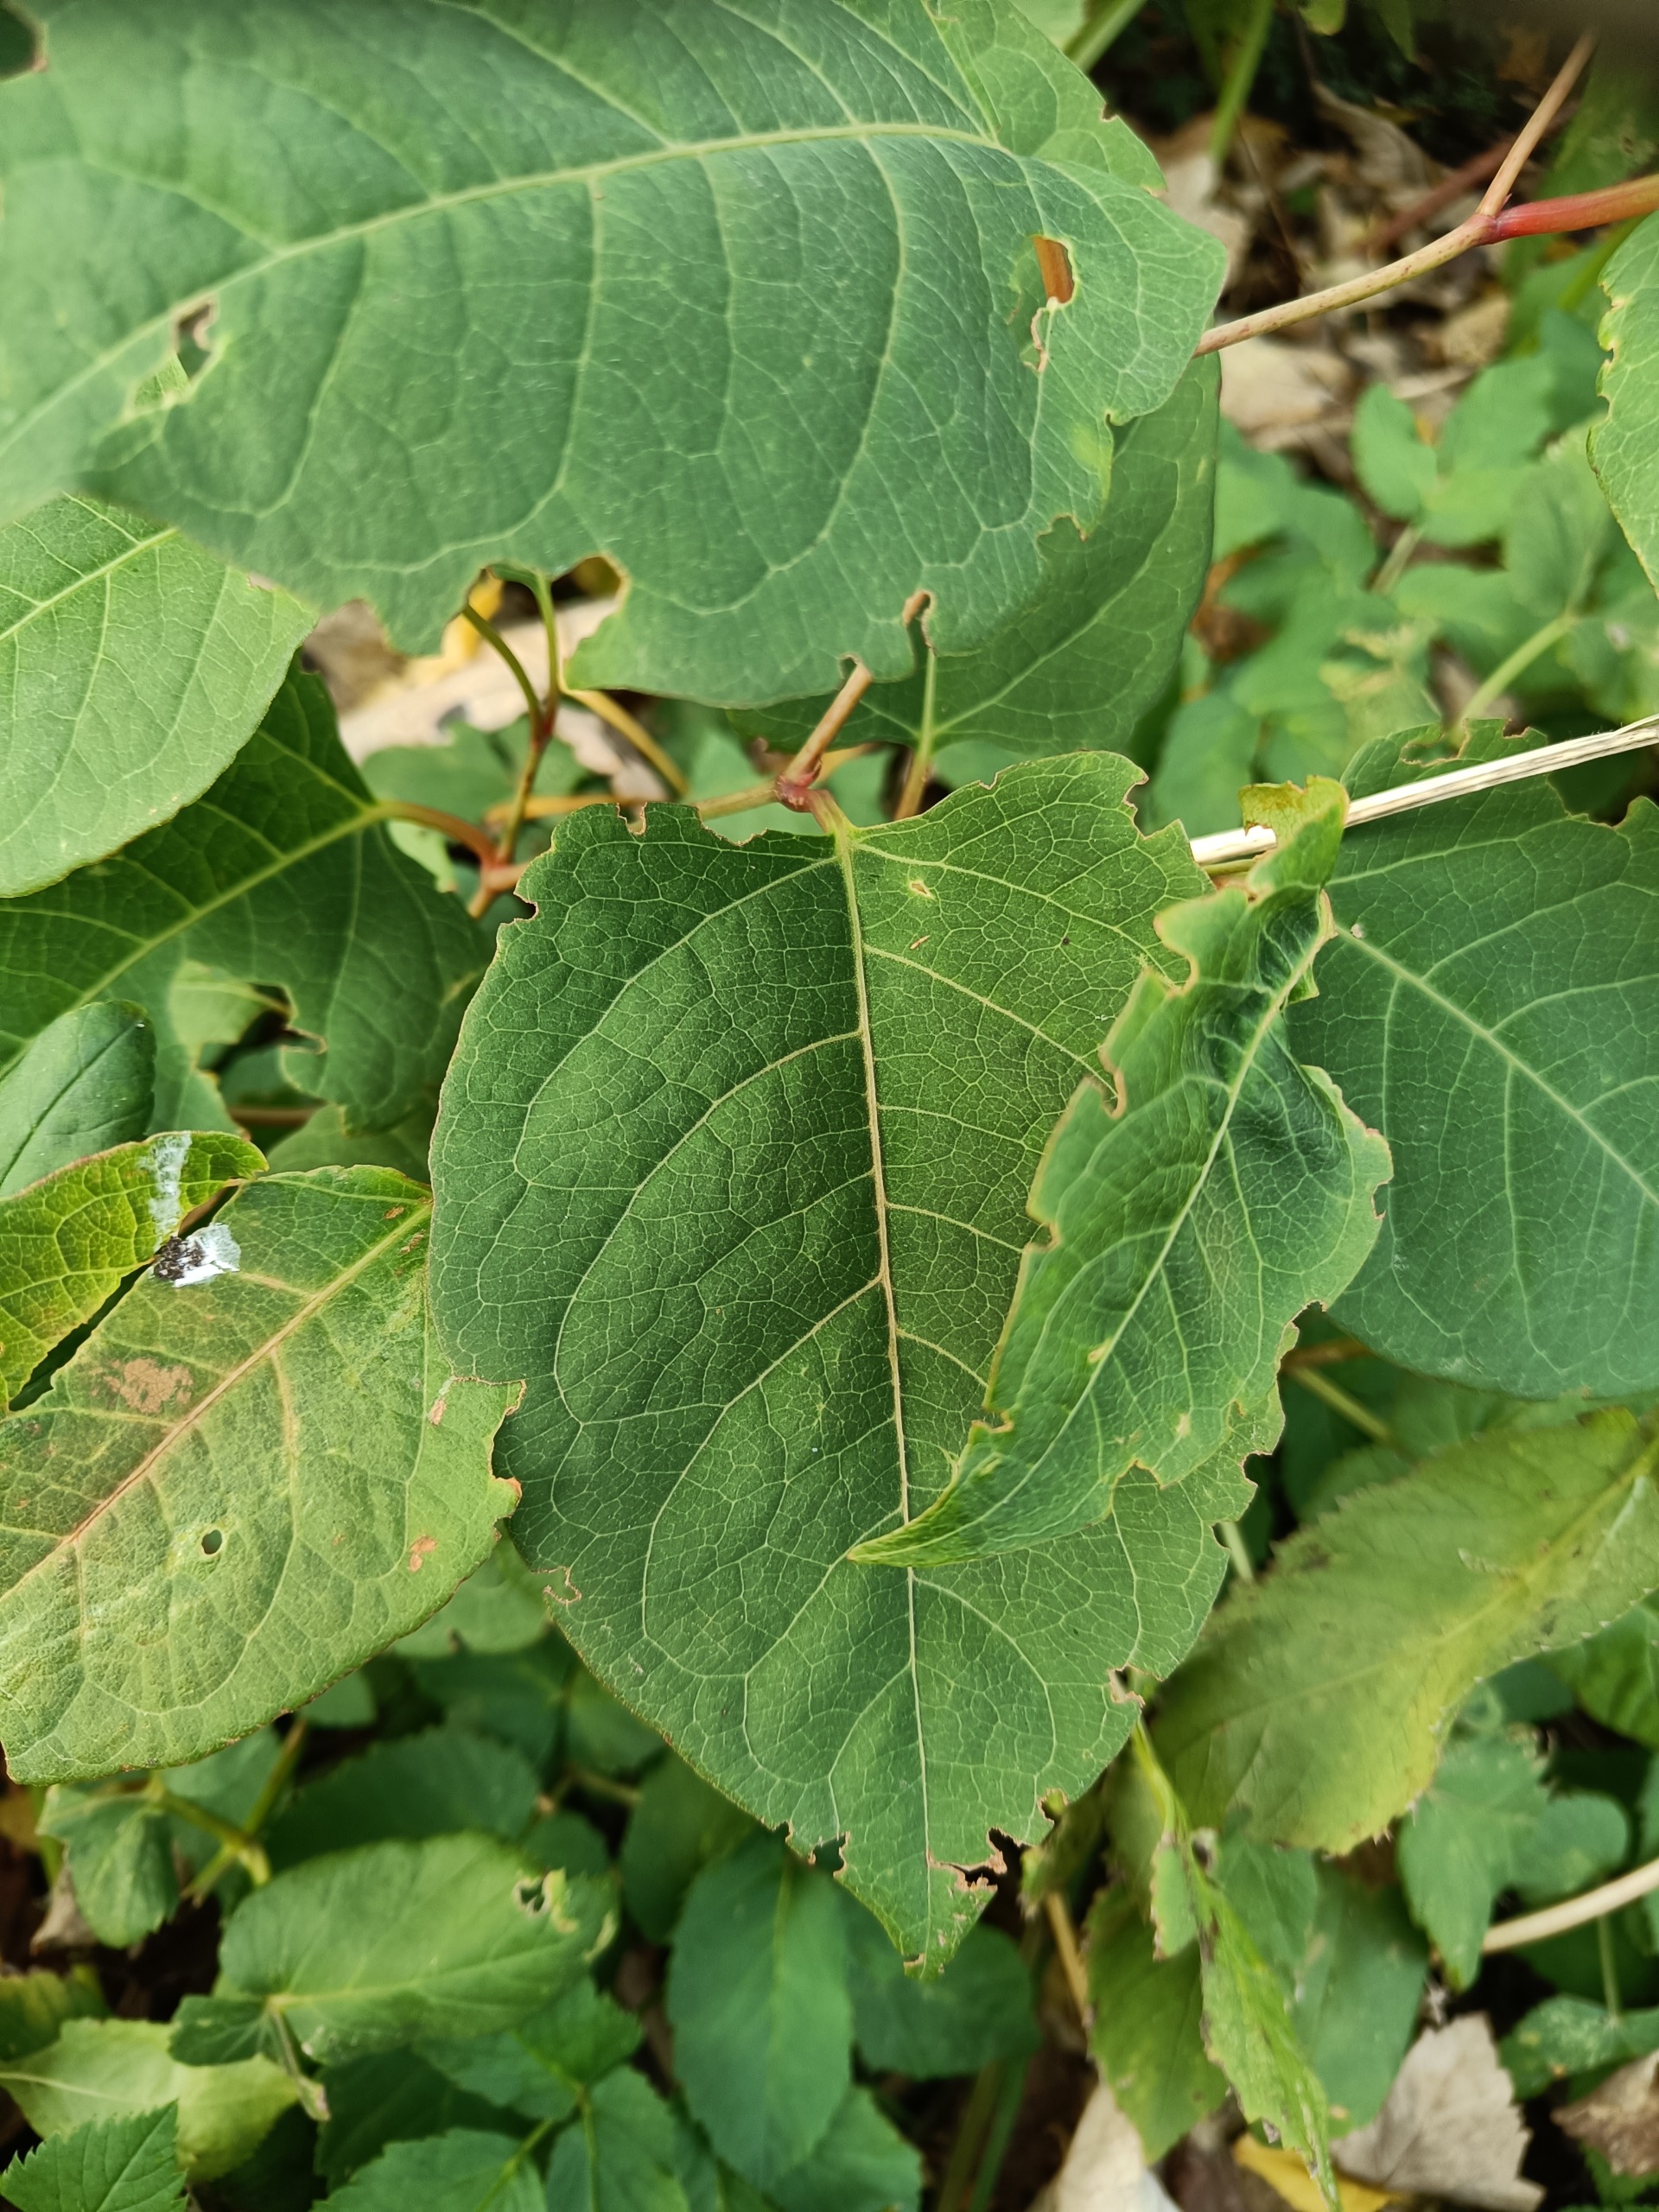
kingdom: Plantae
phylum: Tracheophyta
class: Magnoliopsida
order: Caryophyllales
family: Polygonaceae
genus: Reynoutria
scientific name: Reynoutria bohemica
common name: Hybrid-pileurt
